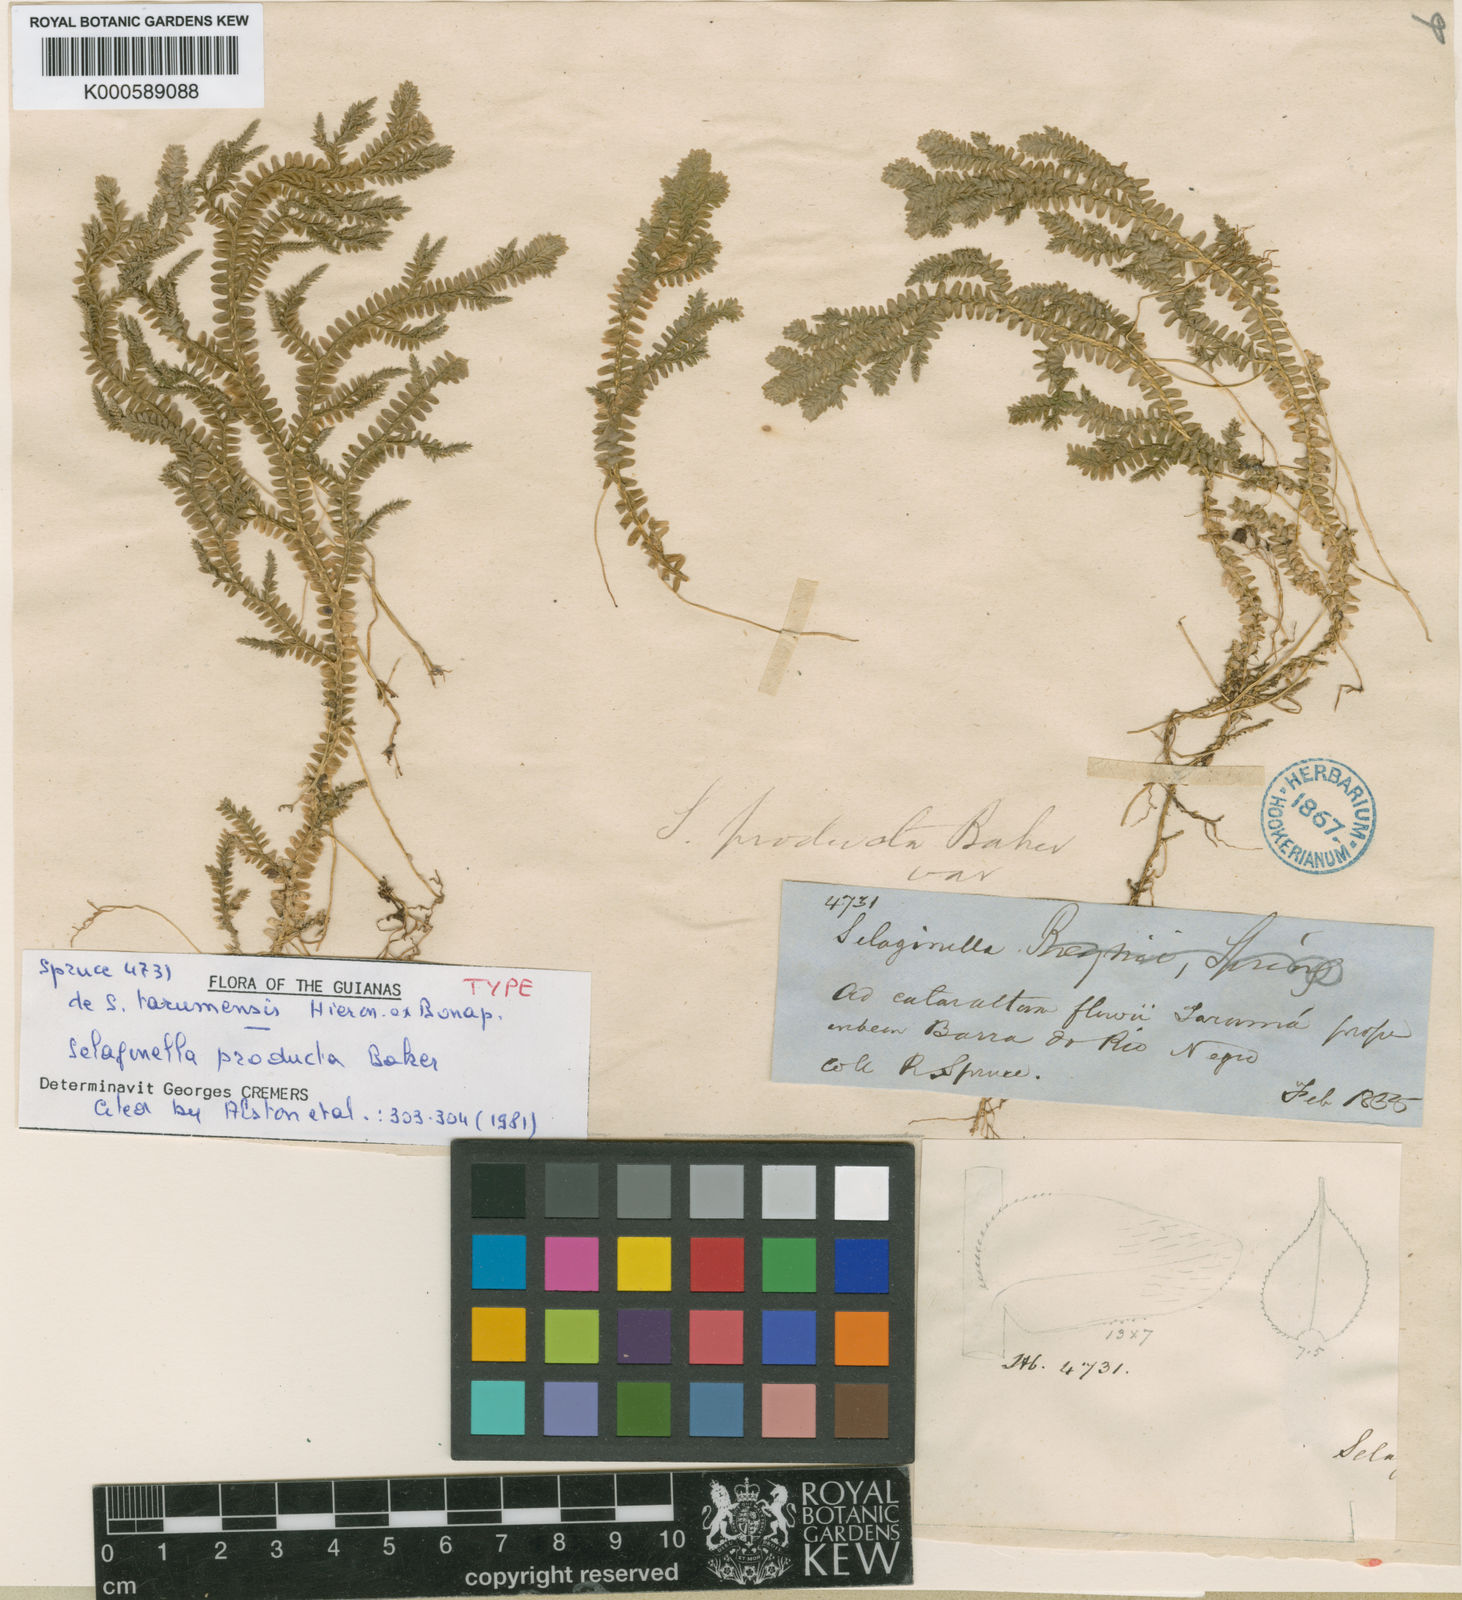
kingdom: Plantae
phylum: Tracheophyta
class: Lycopodiopsida
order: Selaginellales
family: Selaginellaceae
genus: Selaginella
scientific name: Selaginella revoluta
